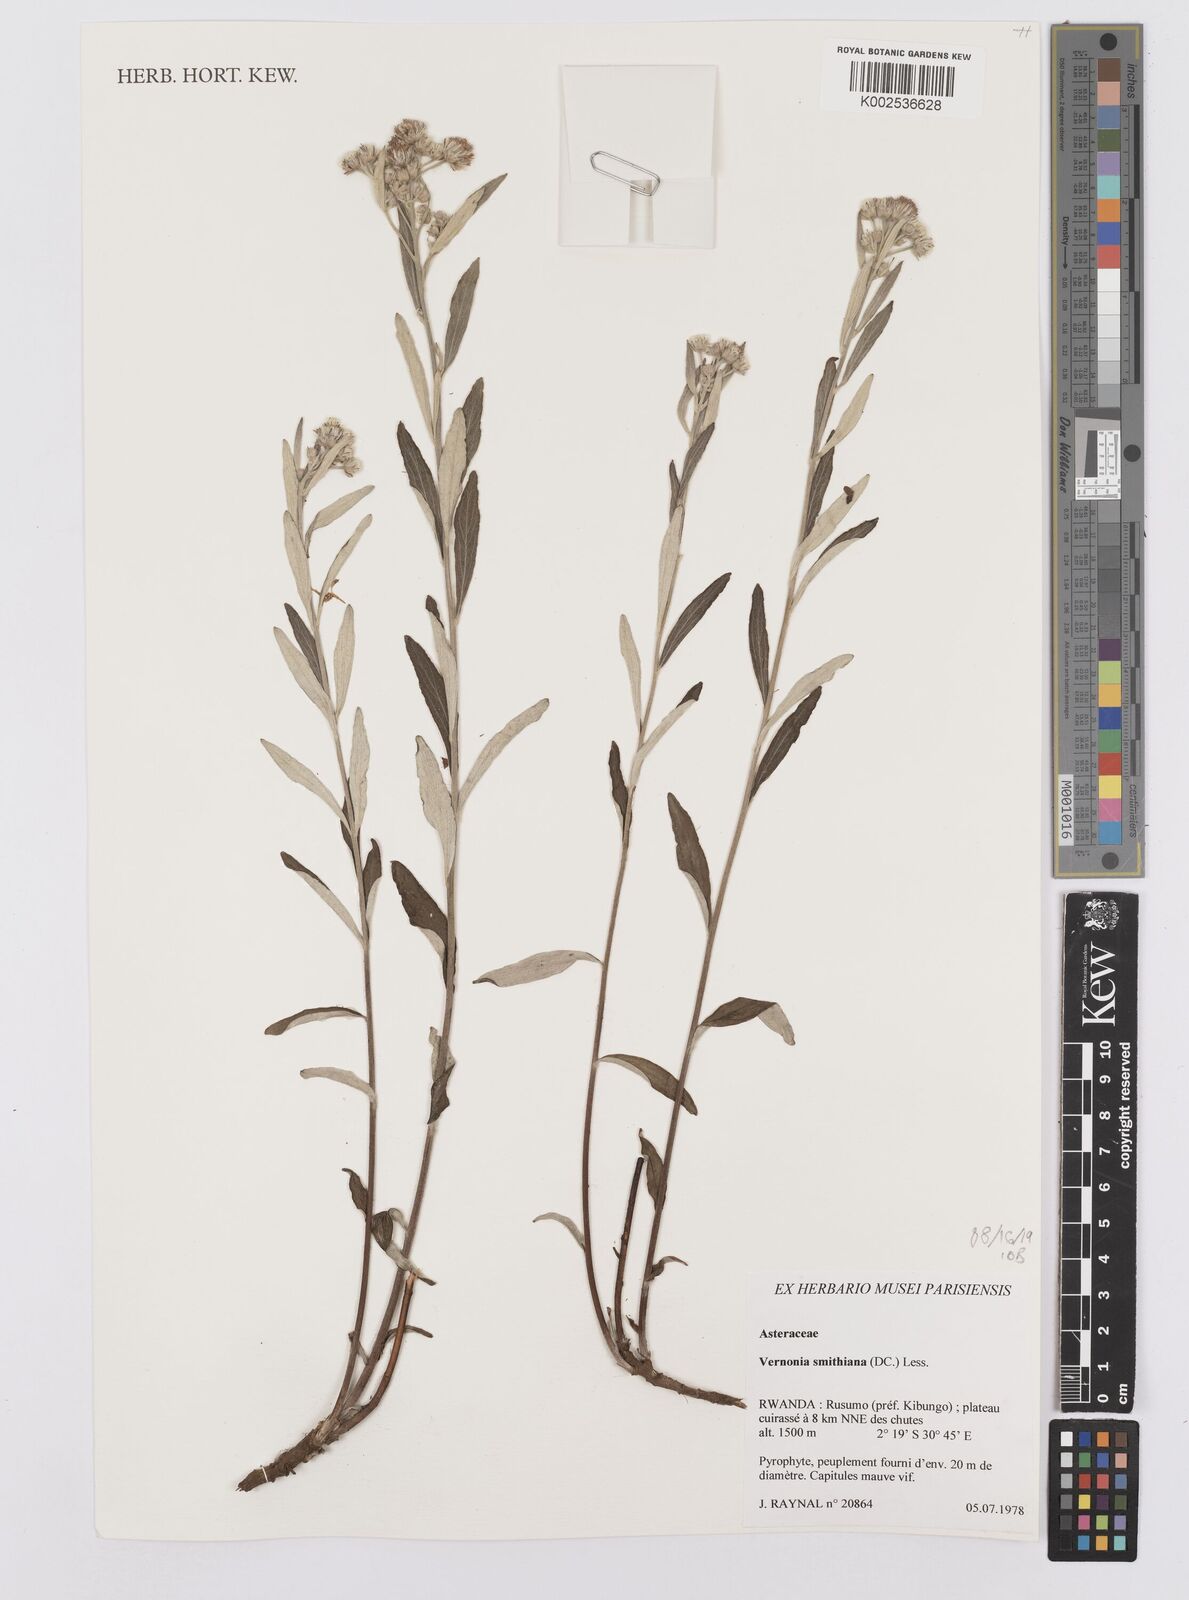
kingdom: Plantae
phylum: Tracheophyta
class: Magnoliopsida
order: Asterales
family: Asteraceae
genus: Hilliardiella
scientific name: Hilliardiella smithiana
